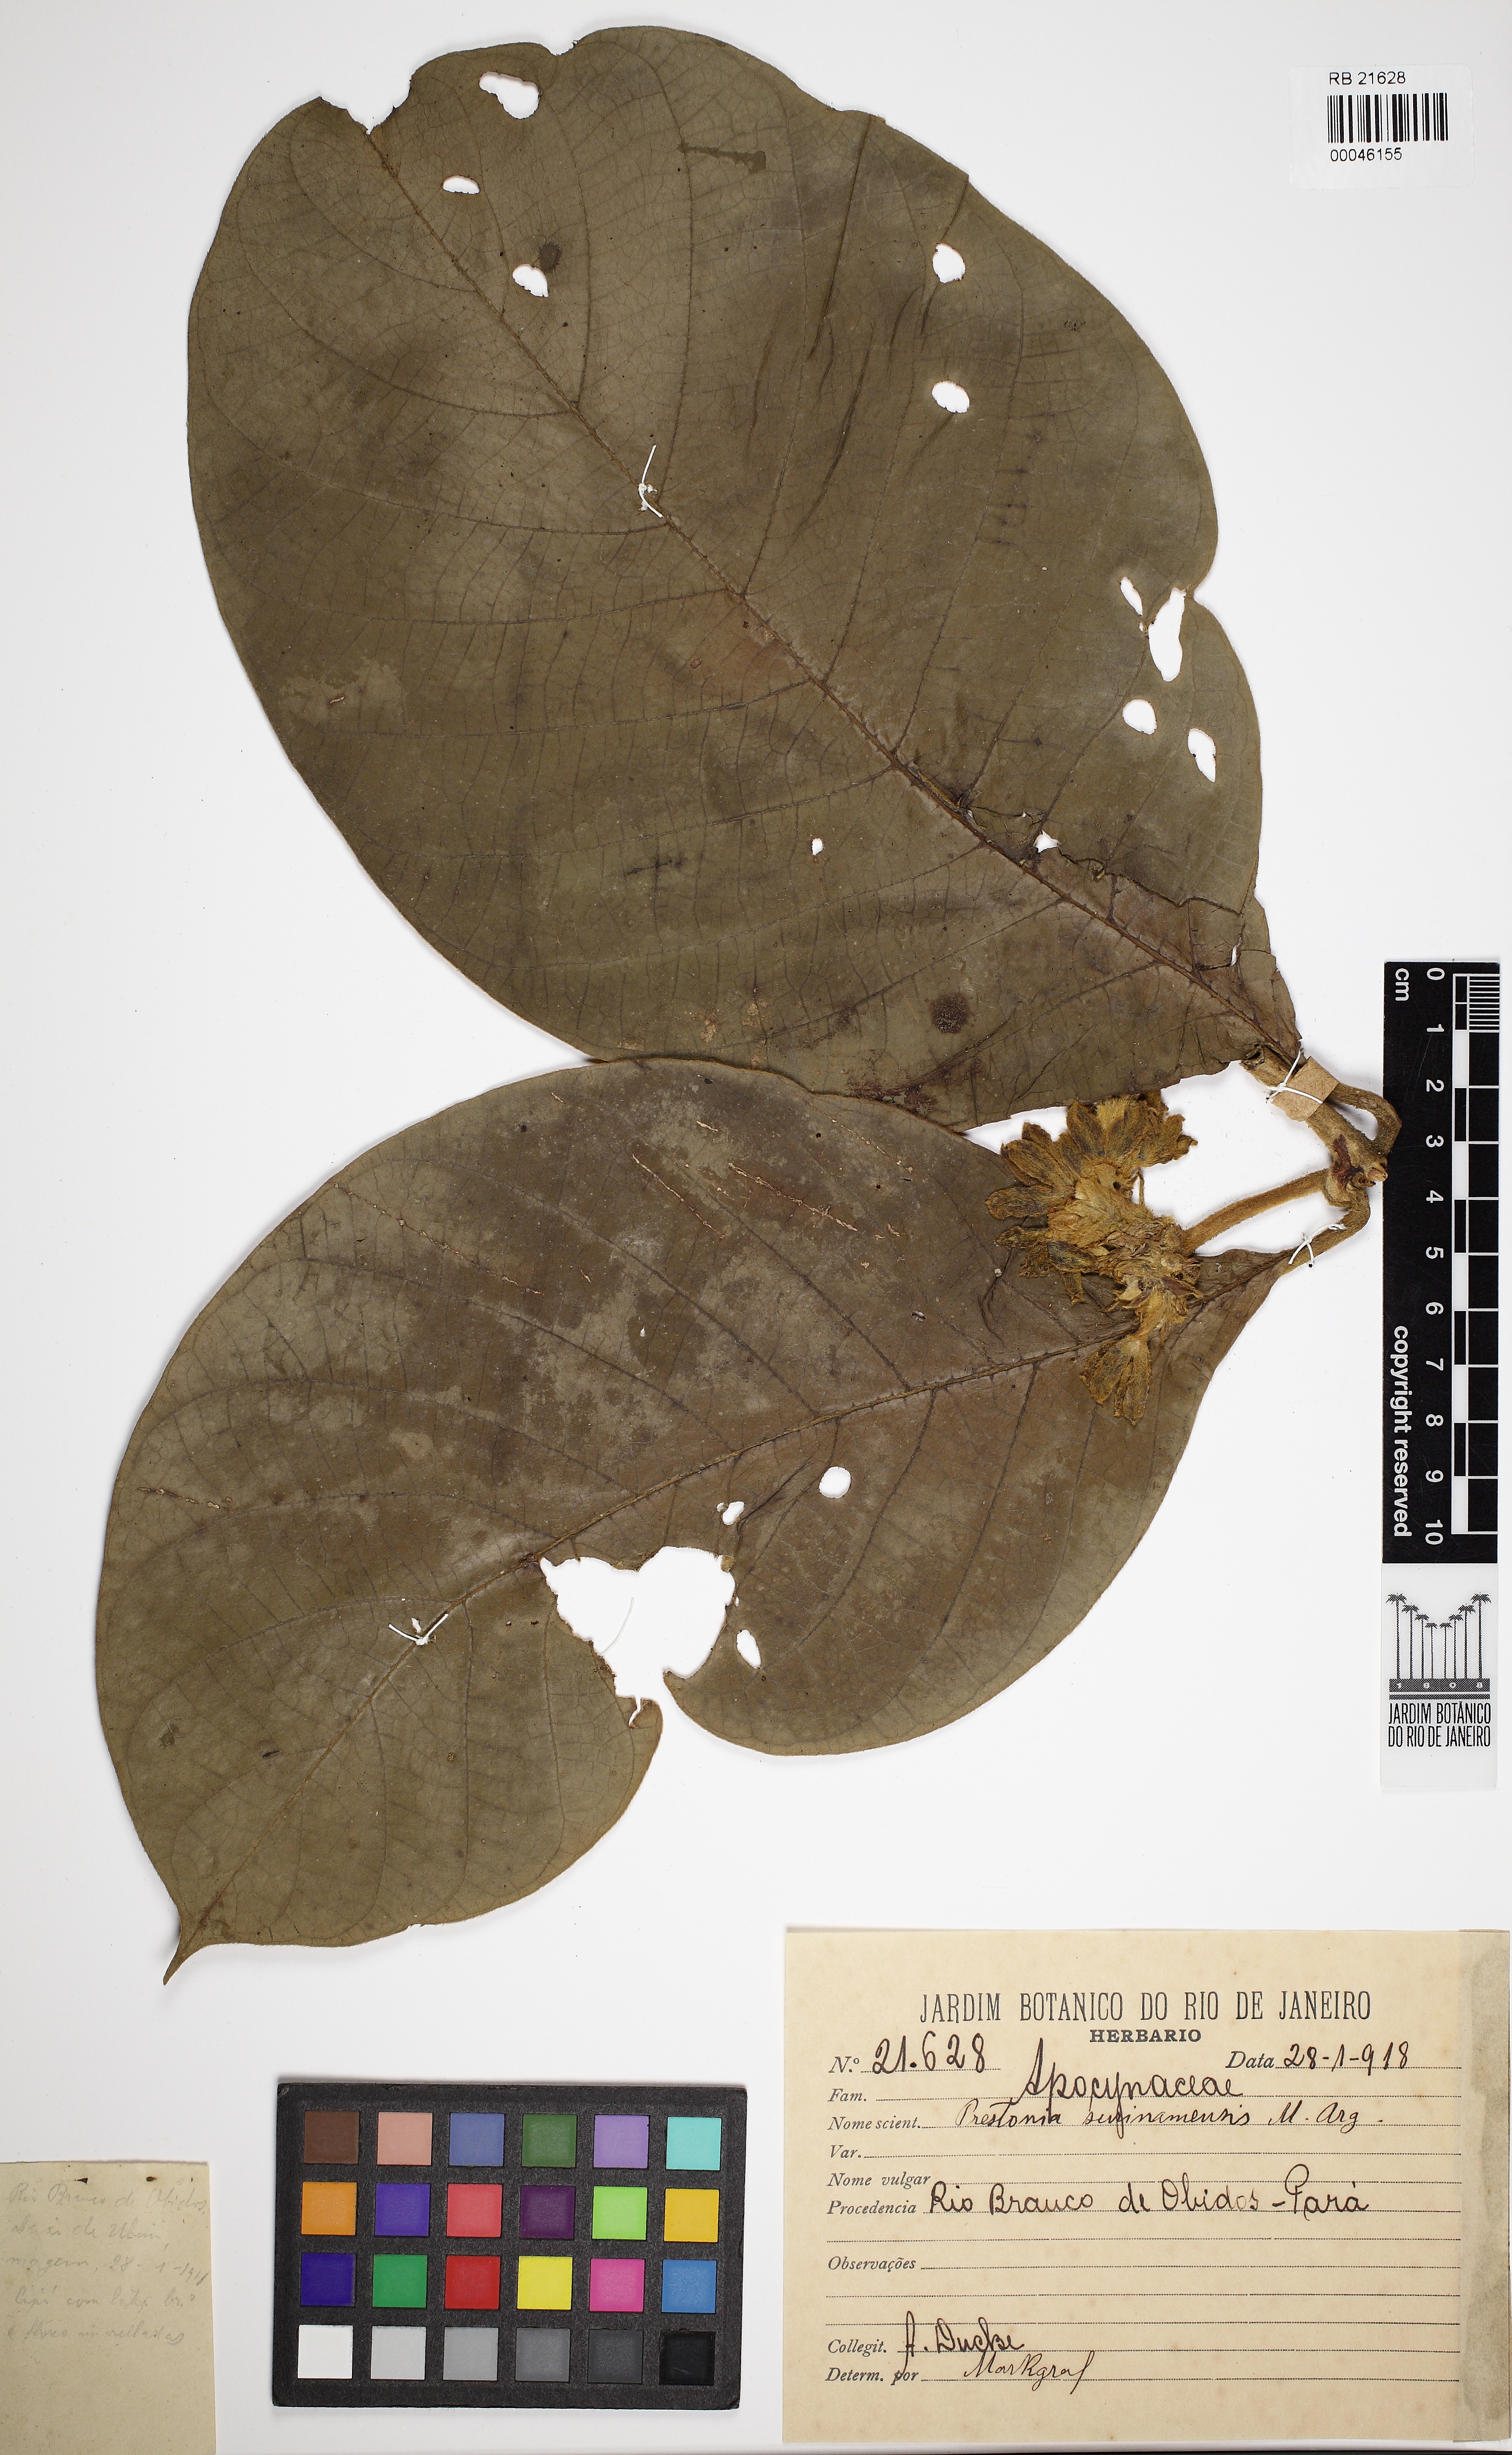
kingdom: Plantae
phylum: Tracheophyta
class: Magnoliopsida
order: Gentianales
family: Apocynaceae
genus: Prestonia
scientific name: Prestonia surinamensis
